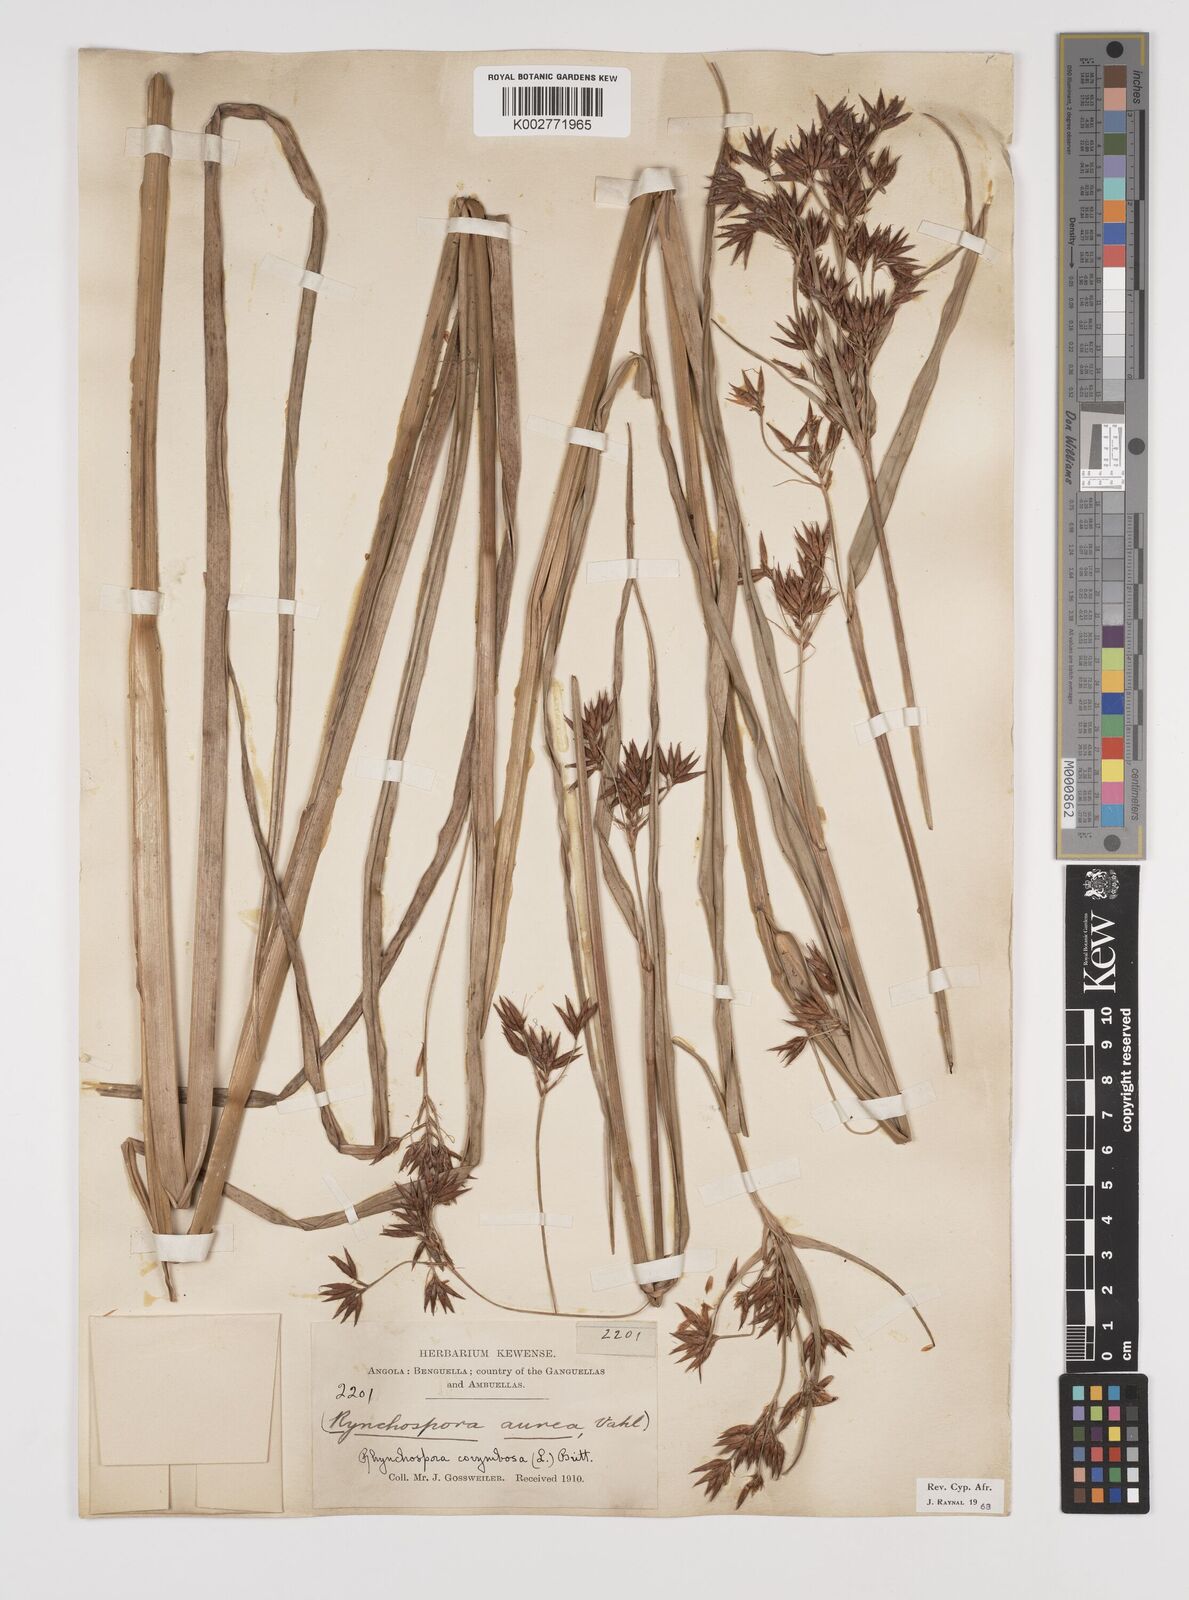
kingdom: Plantae
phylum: Tracheophyta
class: Liliopsida
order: Poales
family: Cyperaceae
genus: Rhynchospora
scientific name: Rhynchospora corymbosa
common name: Golden beak sedge
